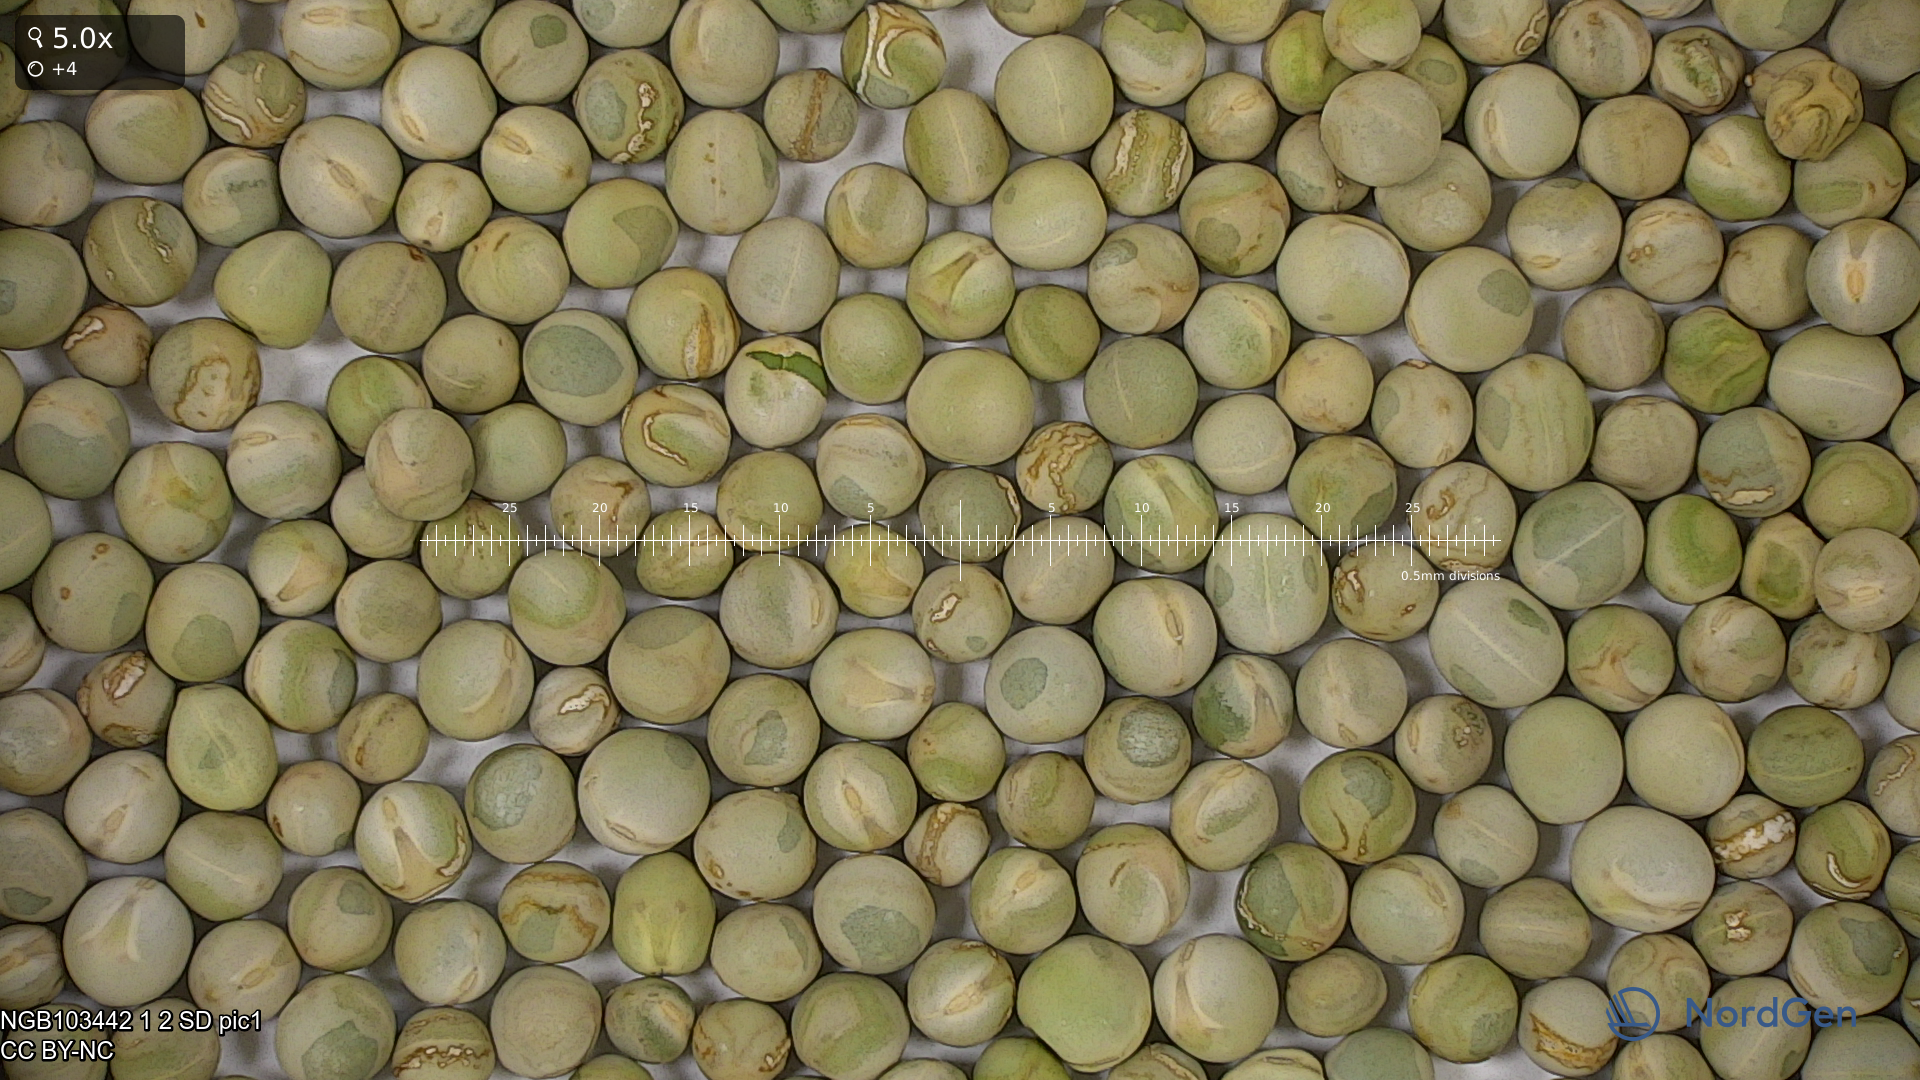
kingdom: Plantae
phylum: Tracheophyta
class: Magnoliopsida
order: Fabales
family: Fabaceae
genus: Lathyrus
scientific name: Lathyrus oleraceus
